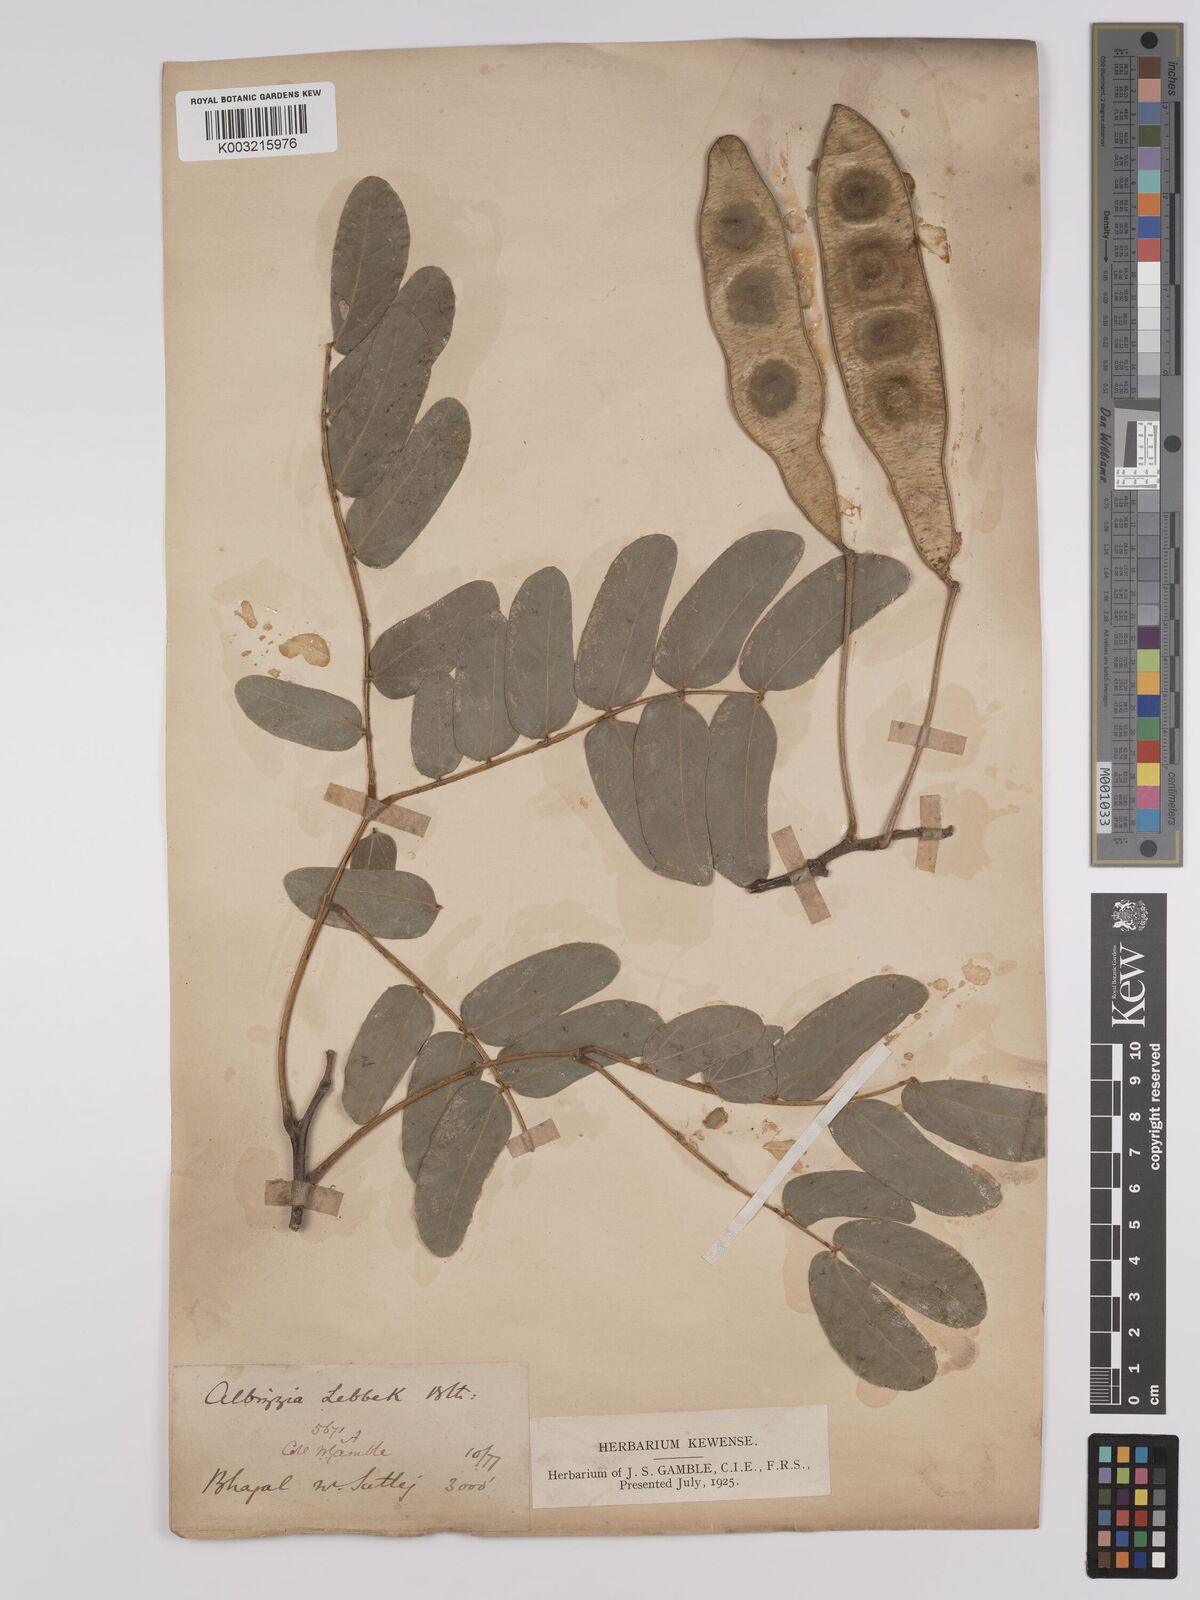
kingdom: Plantae
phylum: Tracheophyta
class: Magnoliopsida
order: Fabales
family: Fabaceae
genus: Albizia
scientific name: Albizia lebbeck
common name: Woman's tongue
